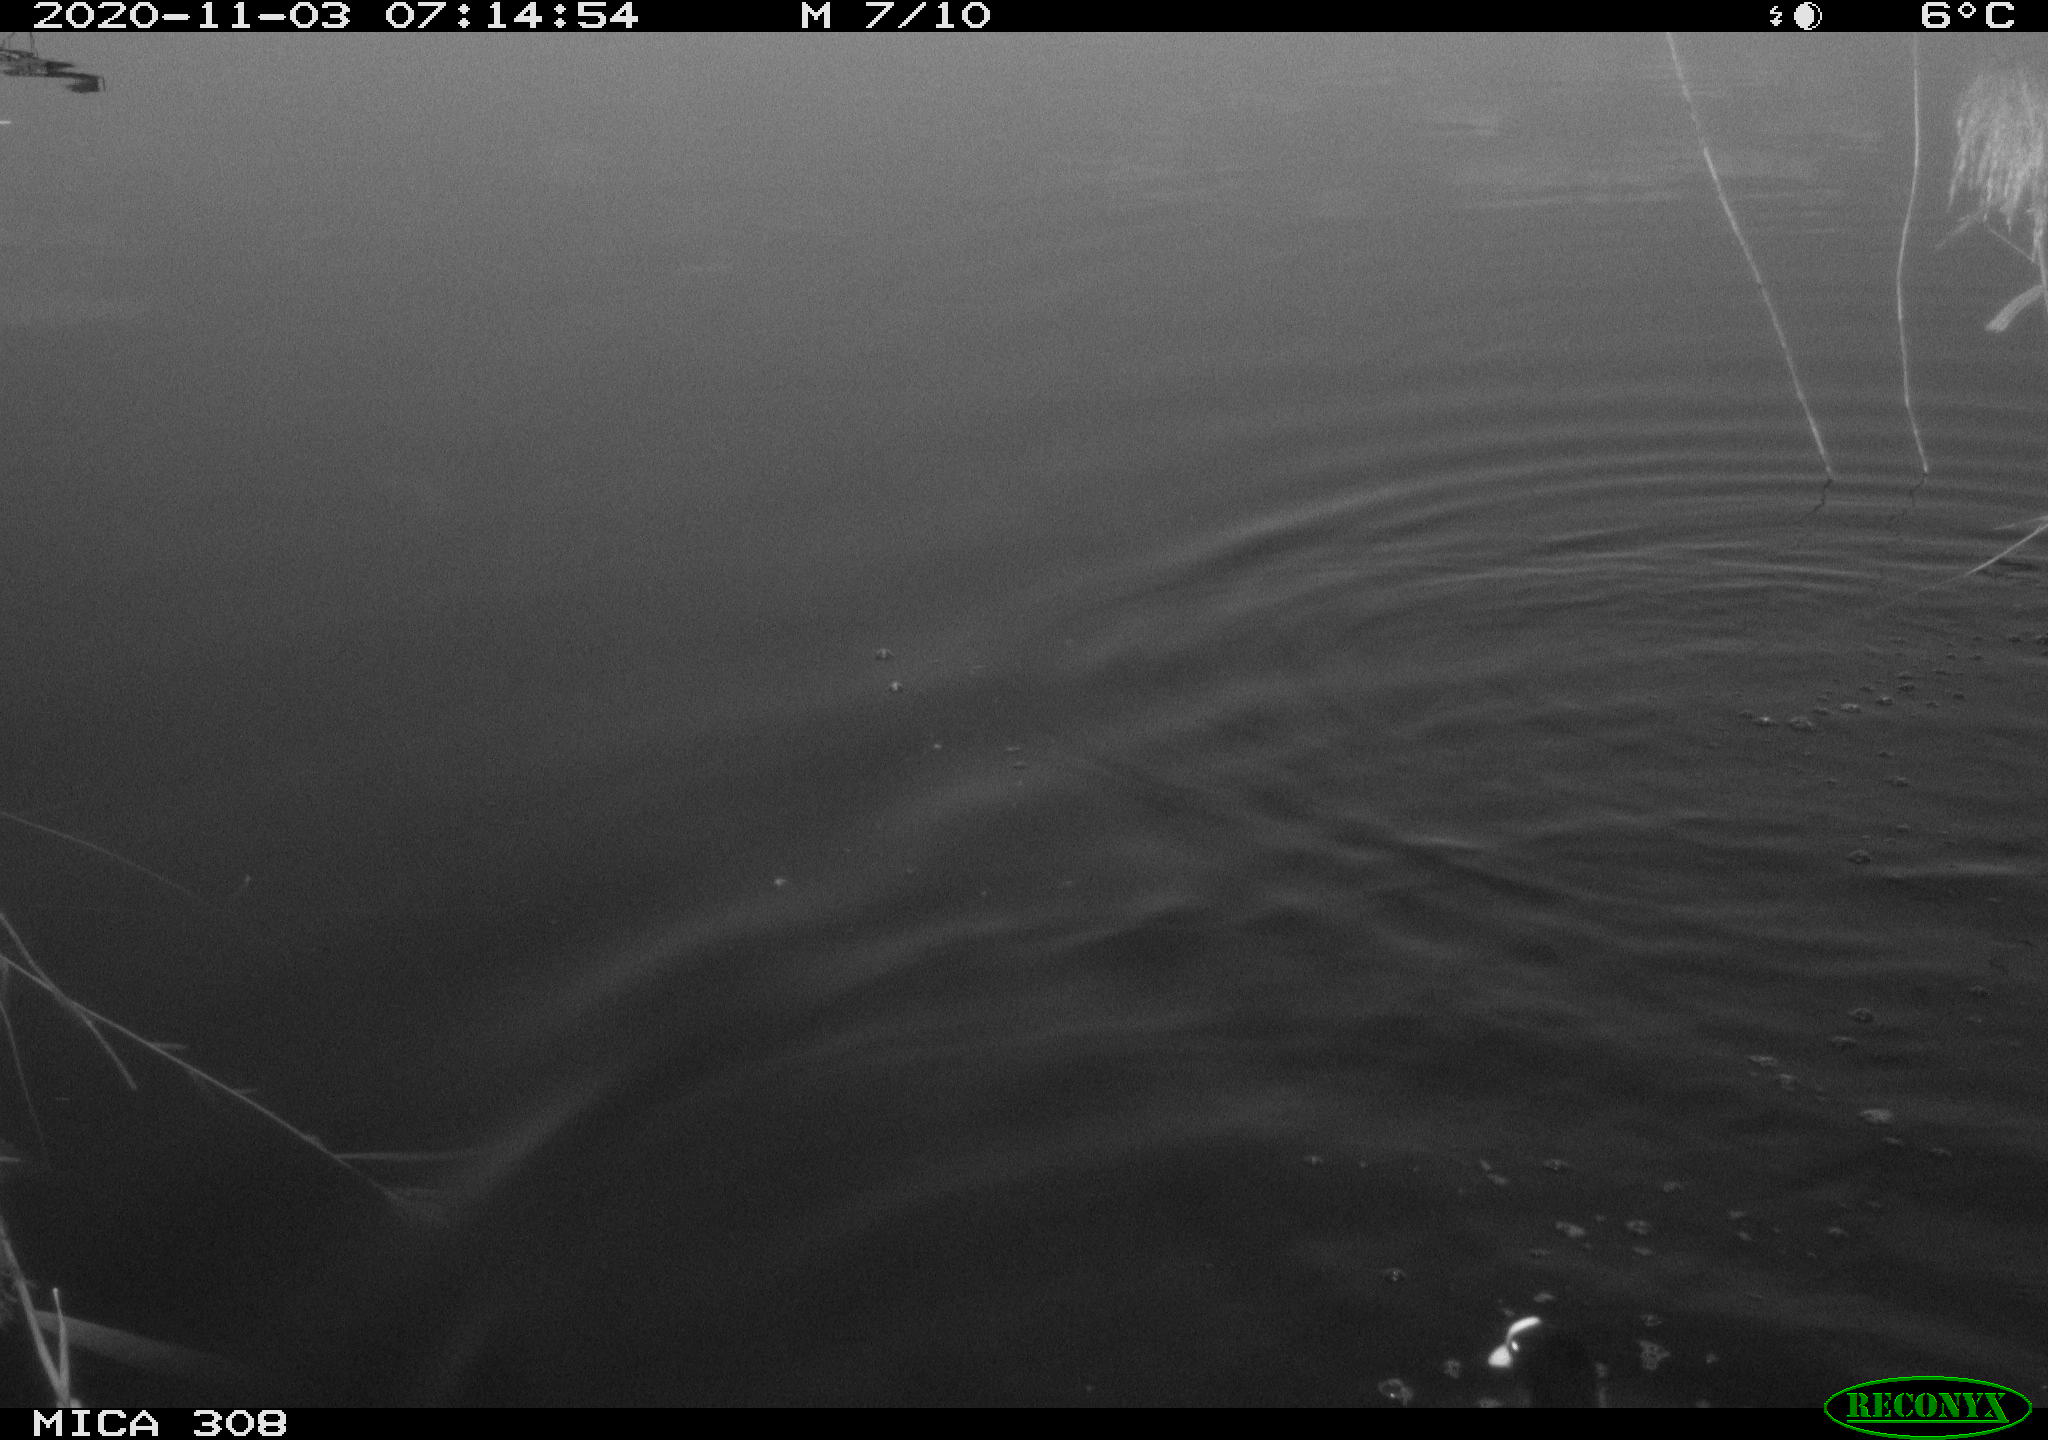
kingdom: Animalia
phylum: Chordata
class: Aves
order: Gruiformes
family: Rallidae
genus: Fulica
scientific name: Fulica atra
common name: Eurasian coot
